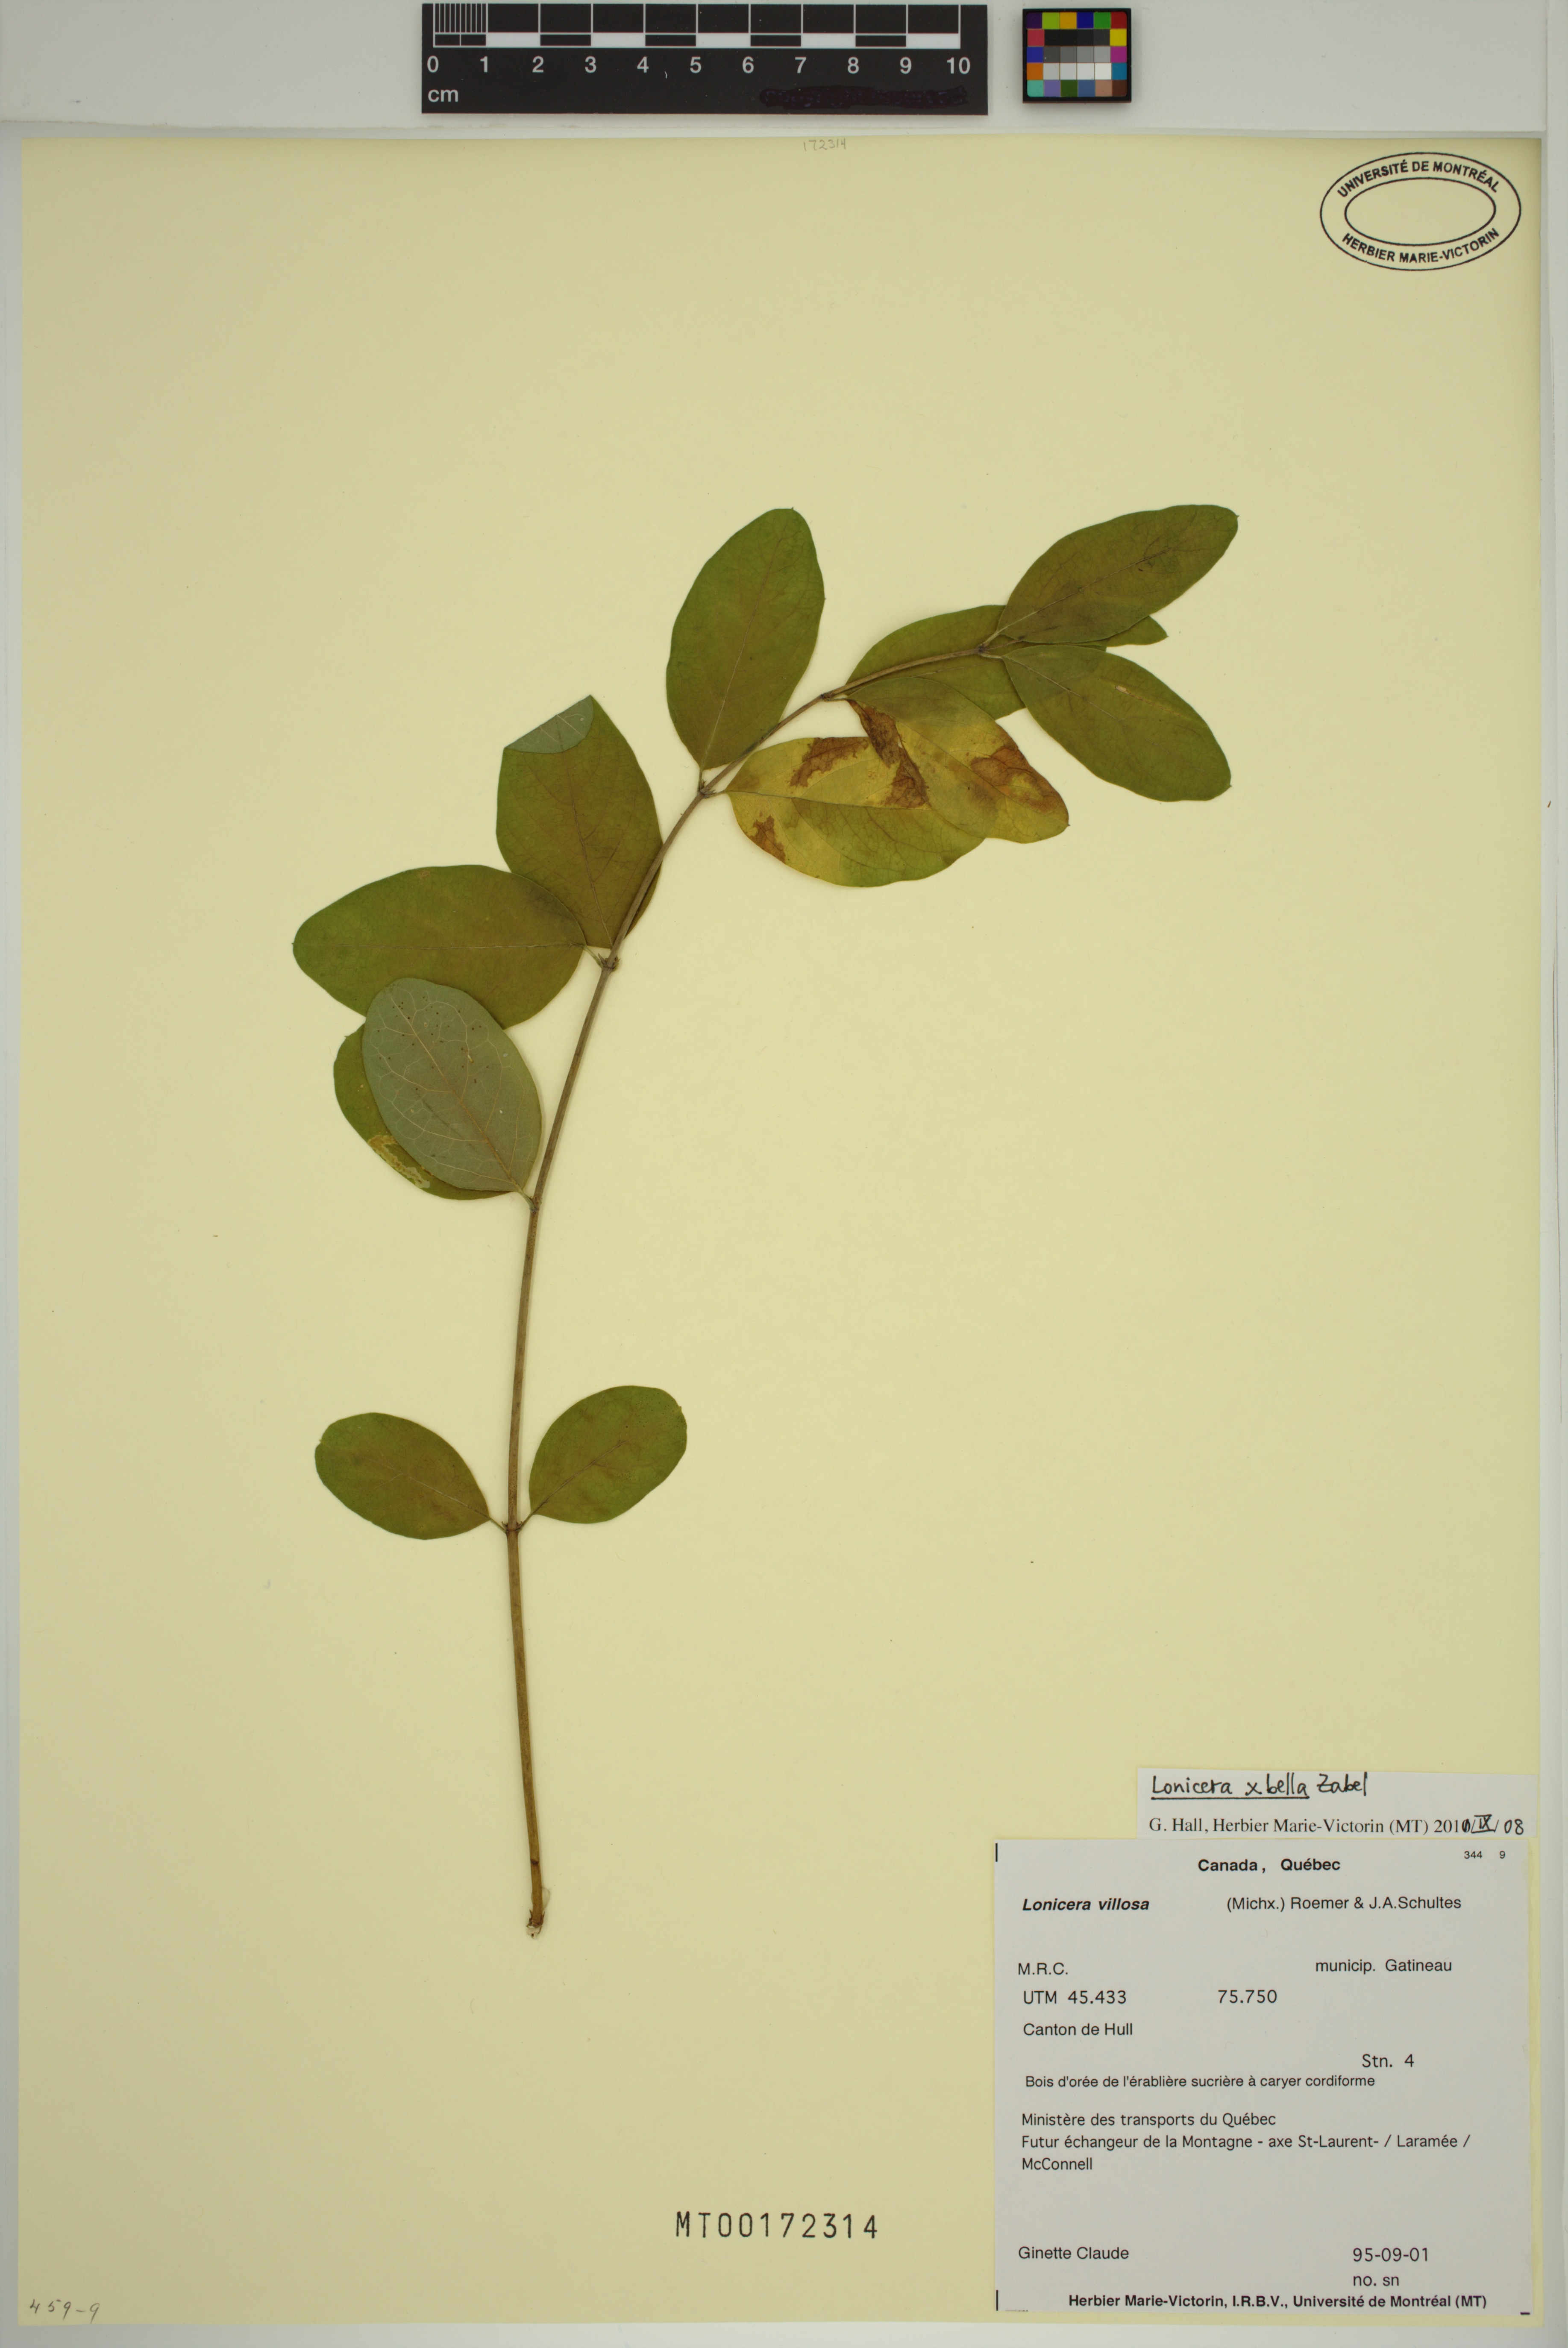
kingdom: Plantae
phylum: Tracheophyta
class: Magnoliopsida
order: Dipsacales
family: Caprifoliaceae
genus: Lonicera
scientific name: Lonicera tatarica
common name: Tatarian honeysuckle
